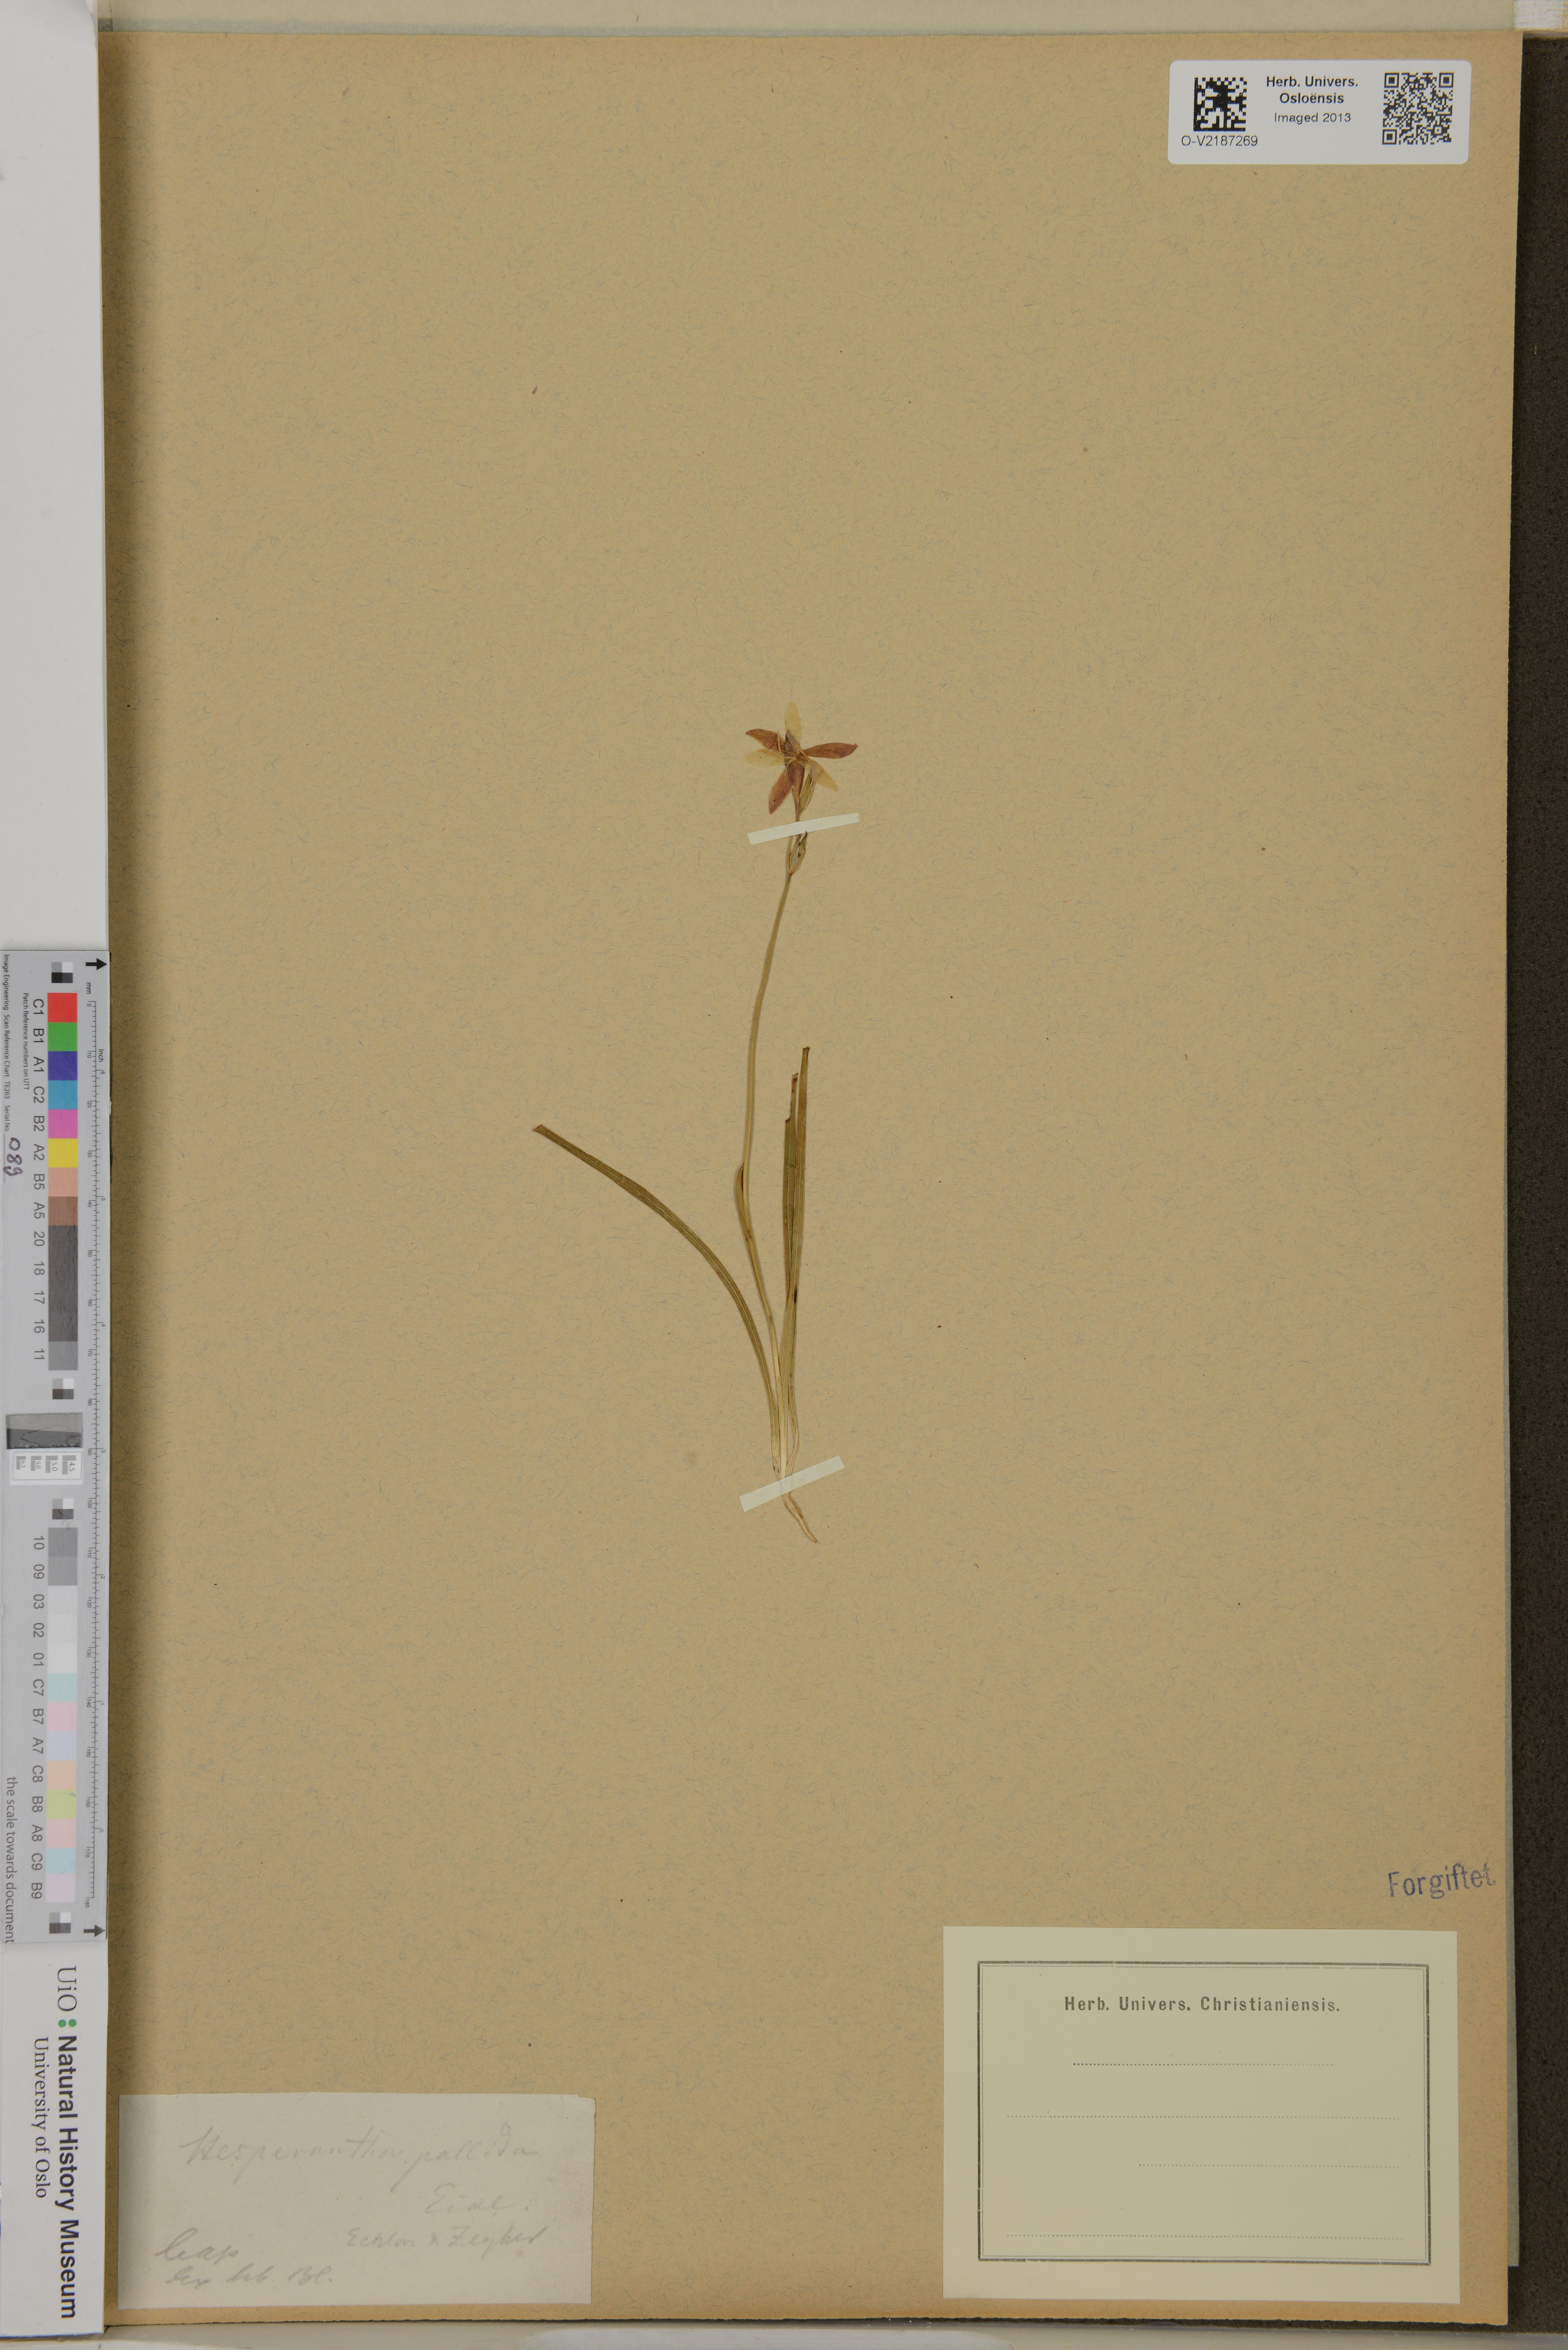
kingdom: Plantae
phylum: Tracheophyta
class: Liliopsida
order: Asparagales
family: Iridaceae
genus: Hesperantha
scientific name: Hesperantha falcata
